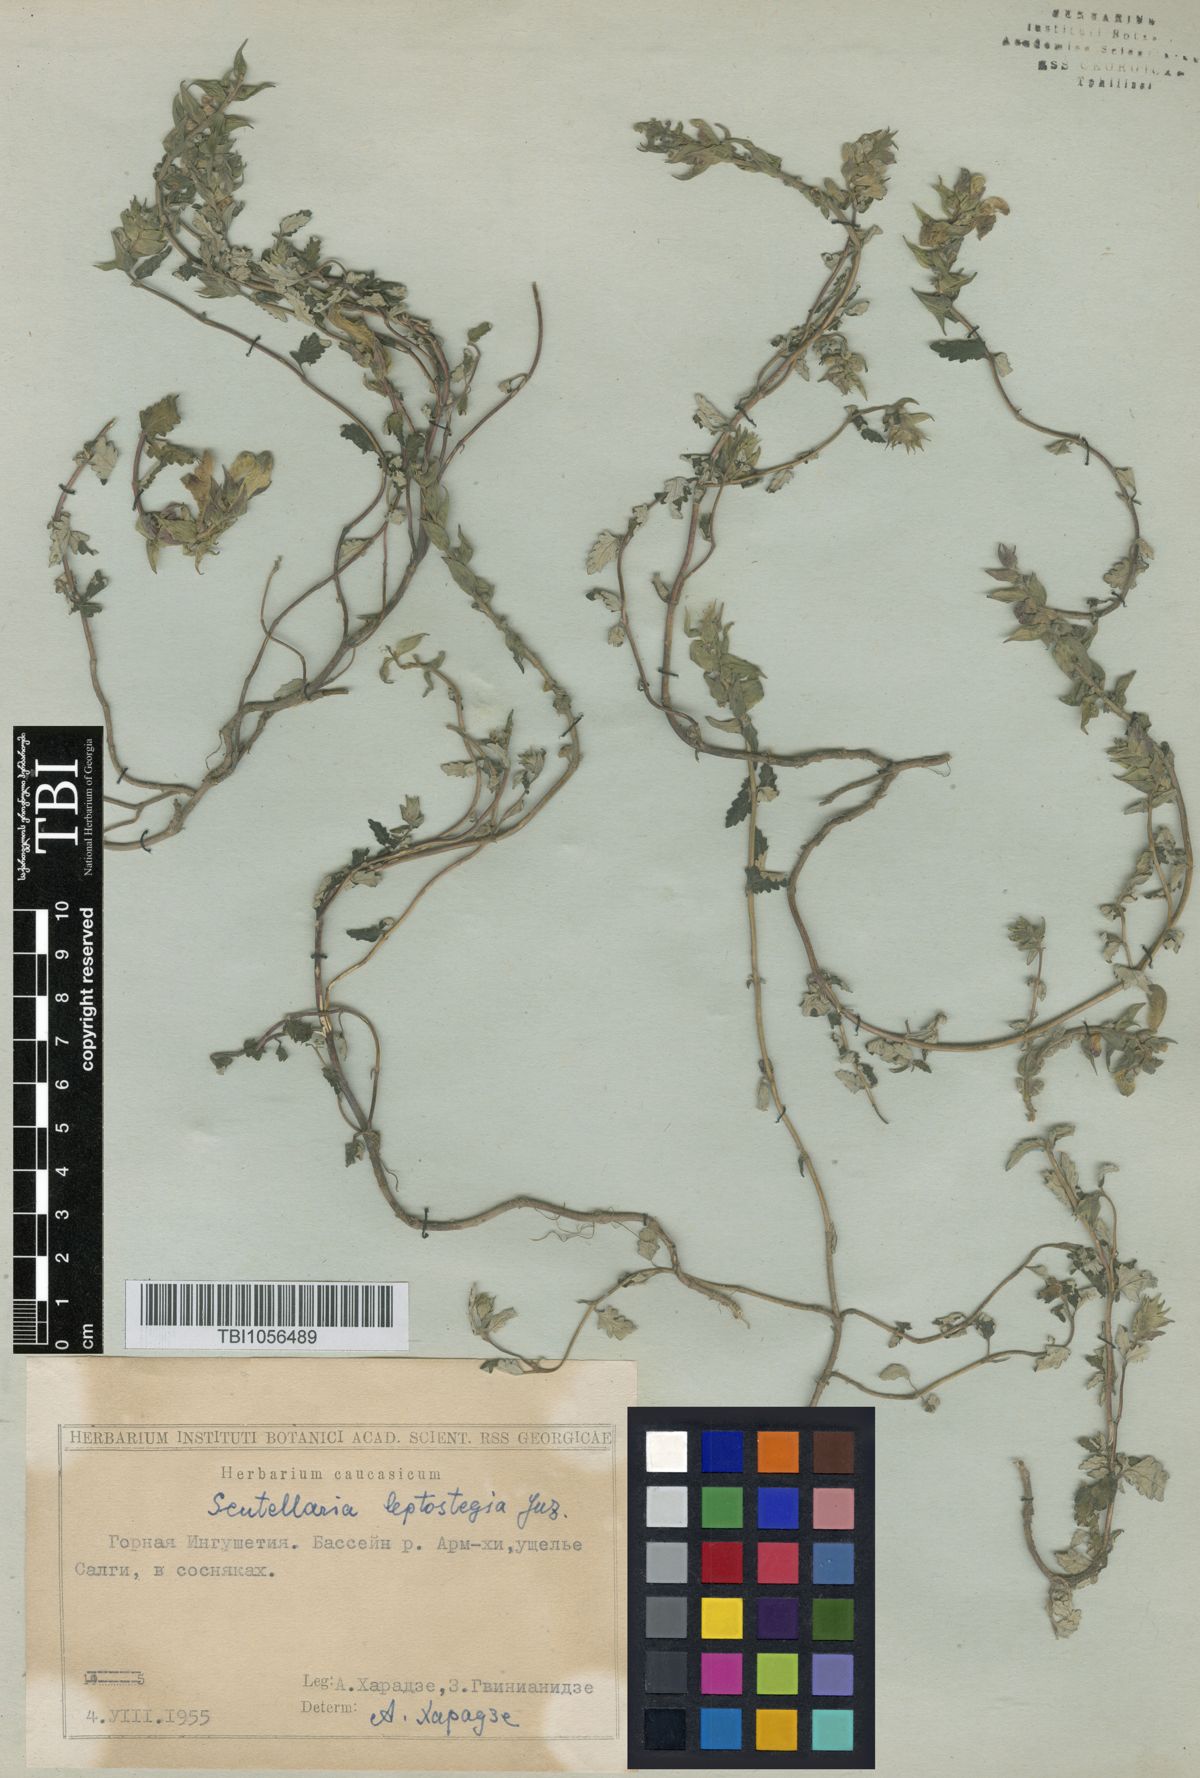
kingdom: Plantae
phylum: Tracheophyta
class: Magnoliopsida
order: Lamiales
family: Lamiaceae
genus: Scutellaria
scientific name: Scutellaria leptostegia
